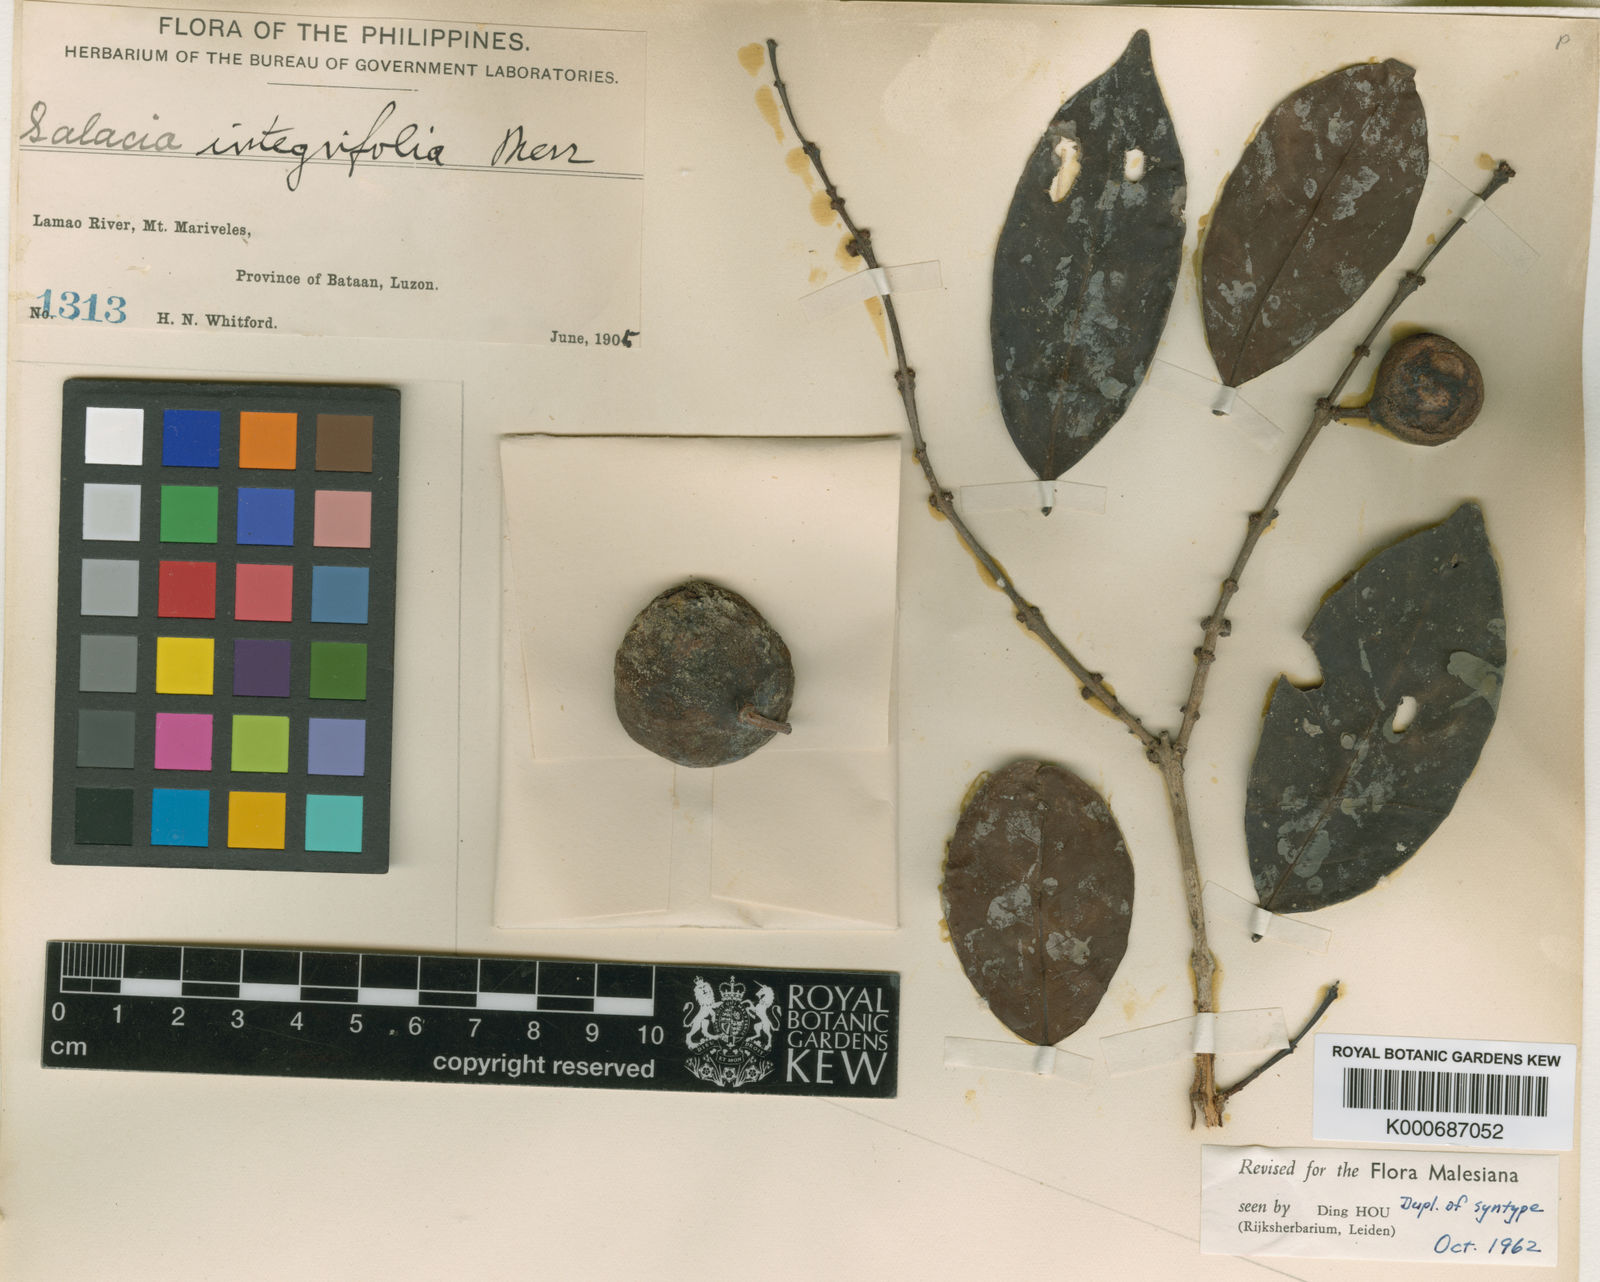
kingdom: Plantae
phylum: Tracheophyta
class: Magnoliopsida
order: Celastrales
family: Celastraceae
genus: Salacia
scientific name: Salacia macrophylla
